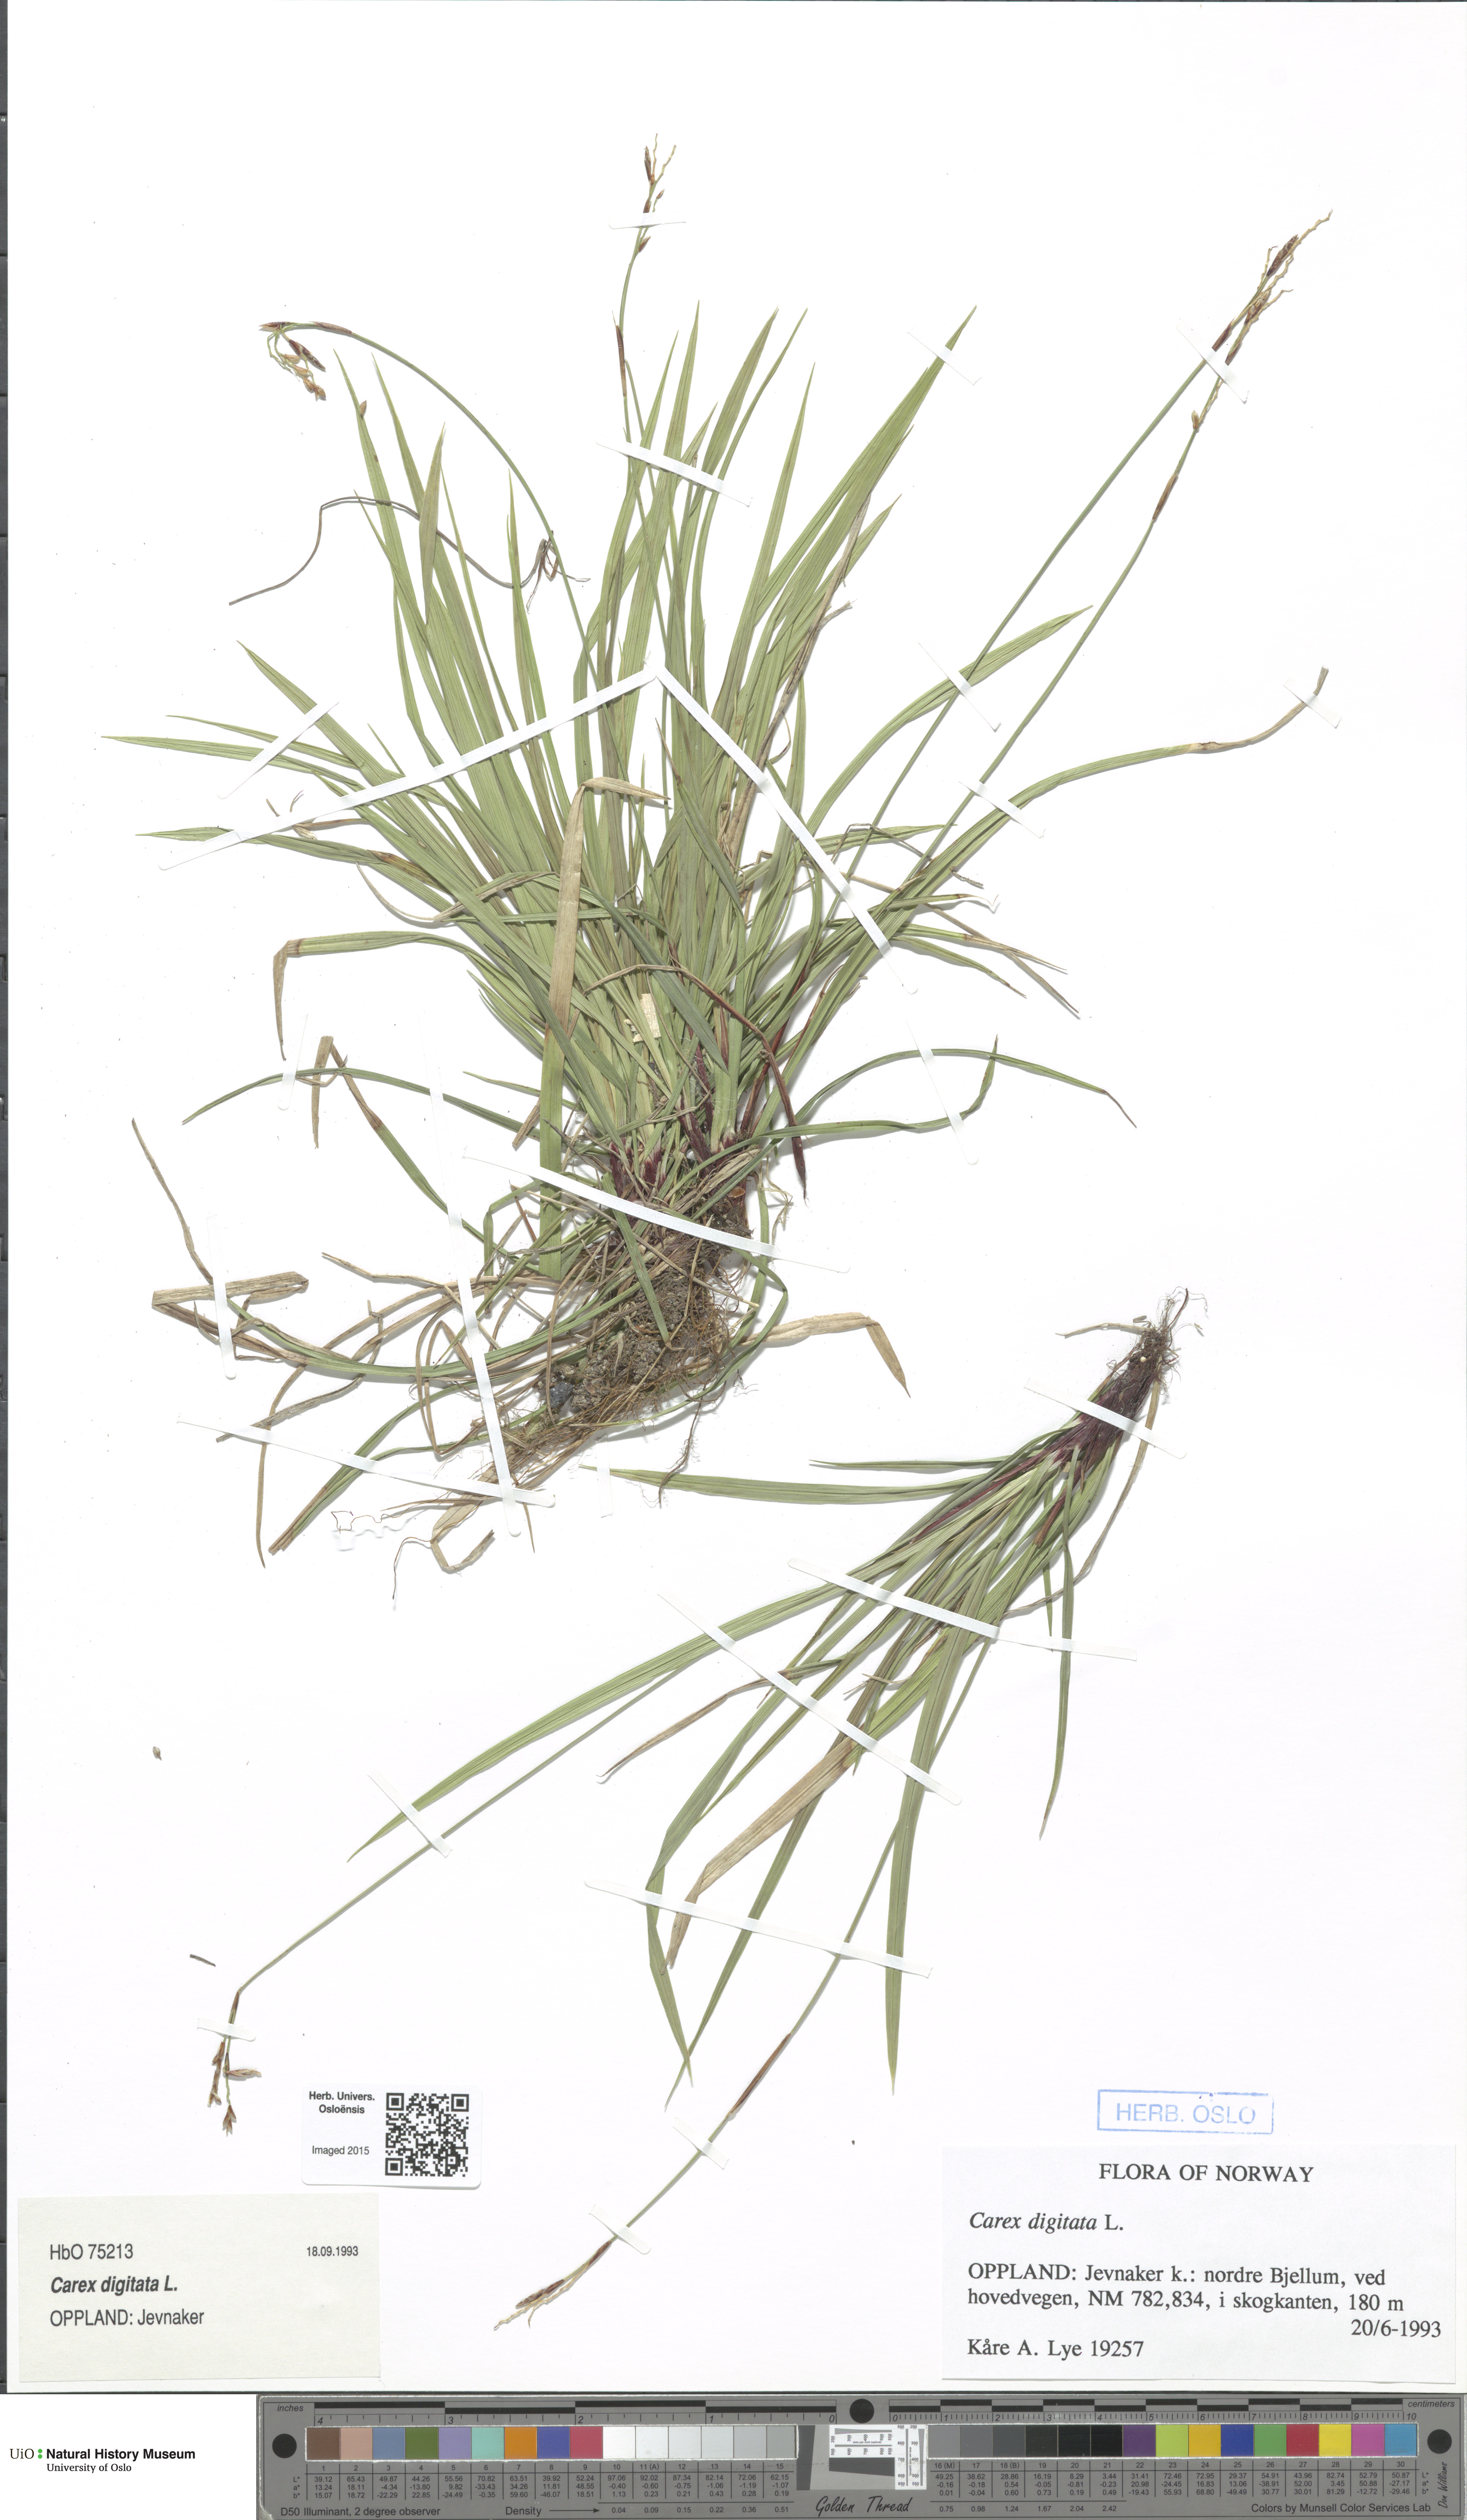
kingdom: Plantae
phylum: Tracheophyta
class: Liliopsida
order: Poales
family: Cyperaceae
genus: Carex
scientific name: Carex digitata
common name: Fingered sedge
